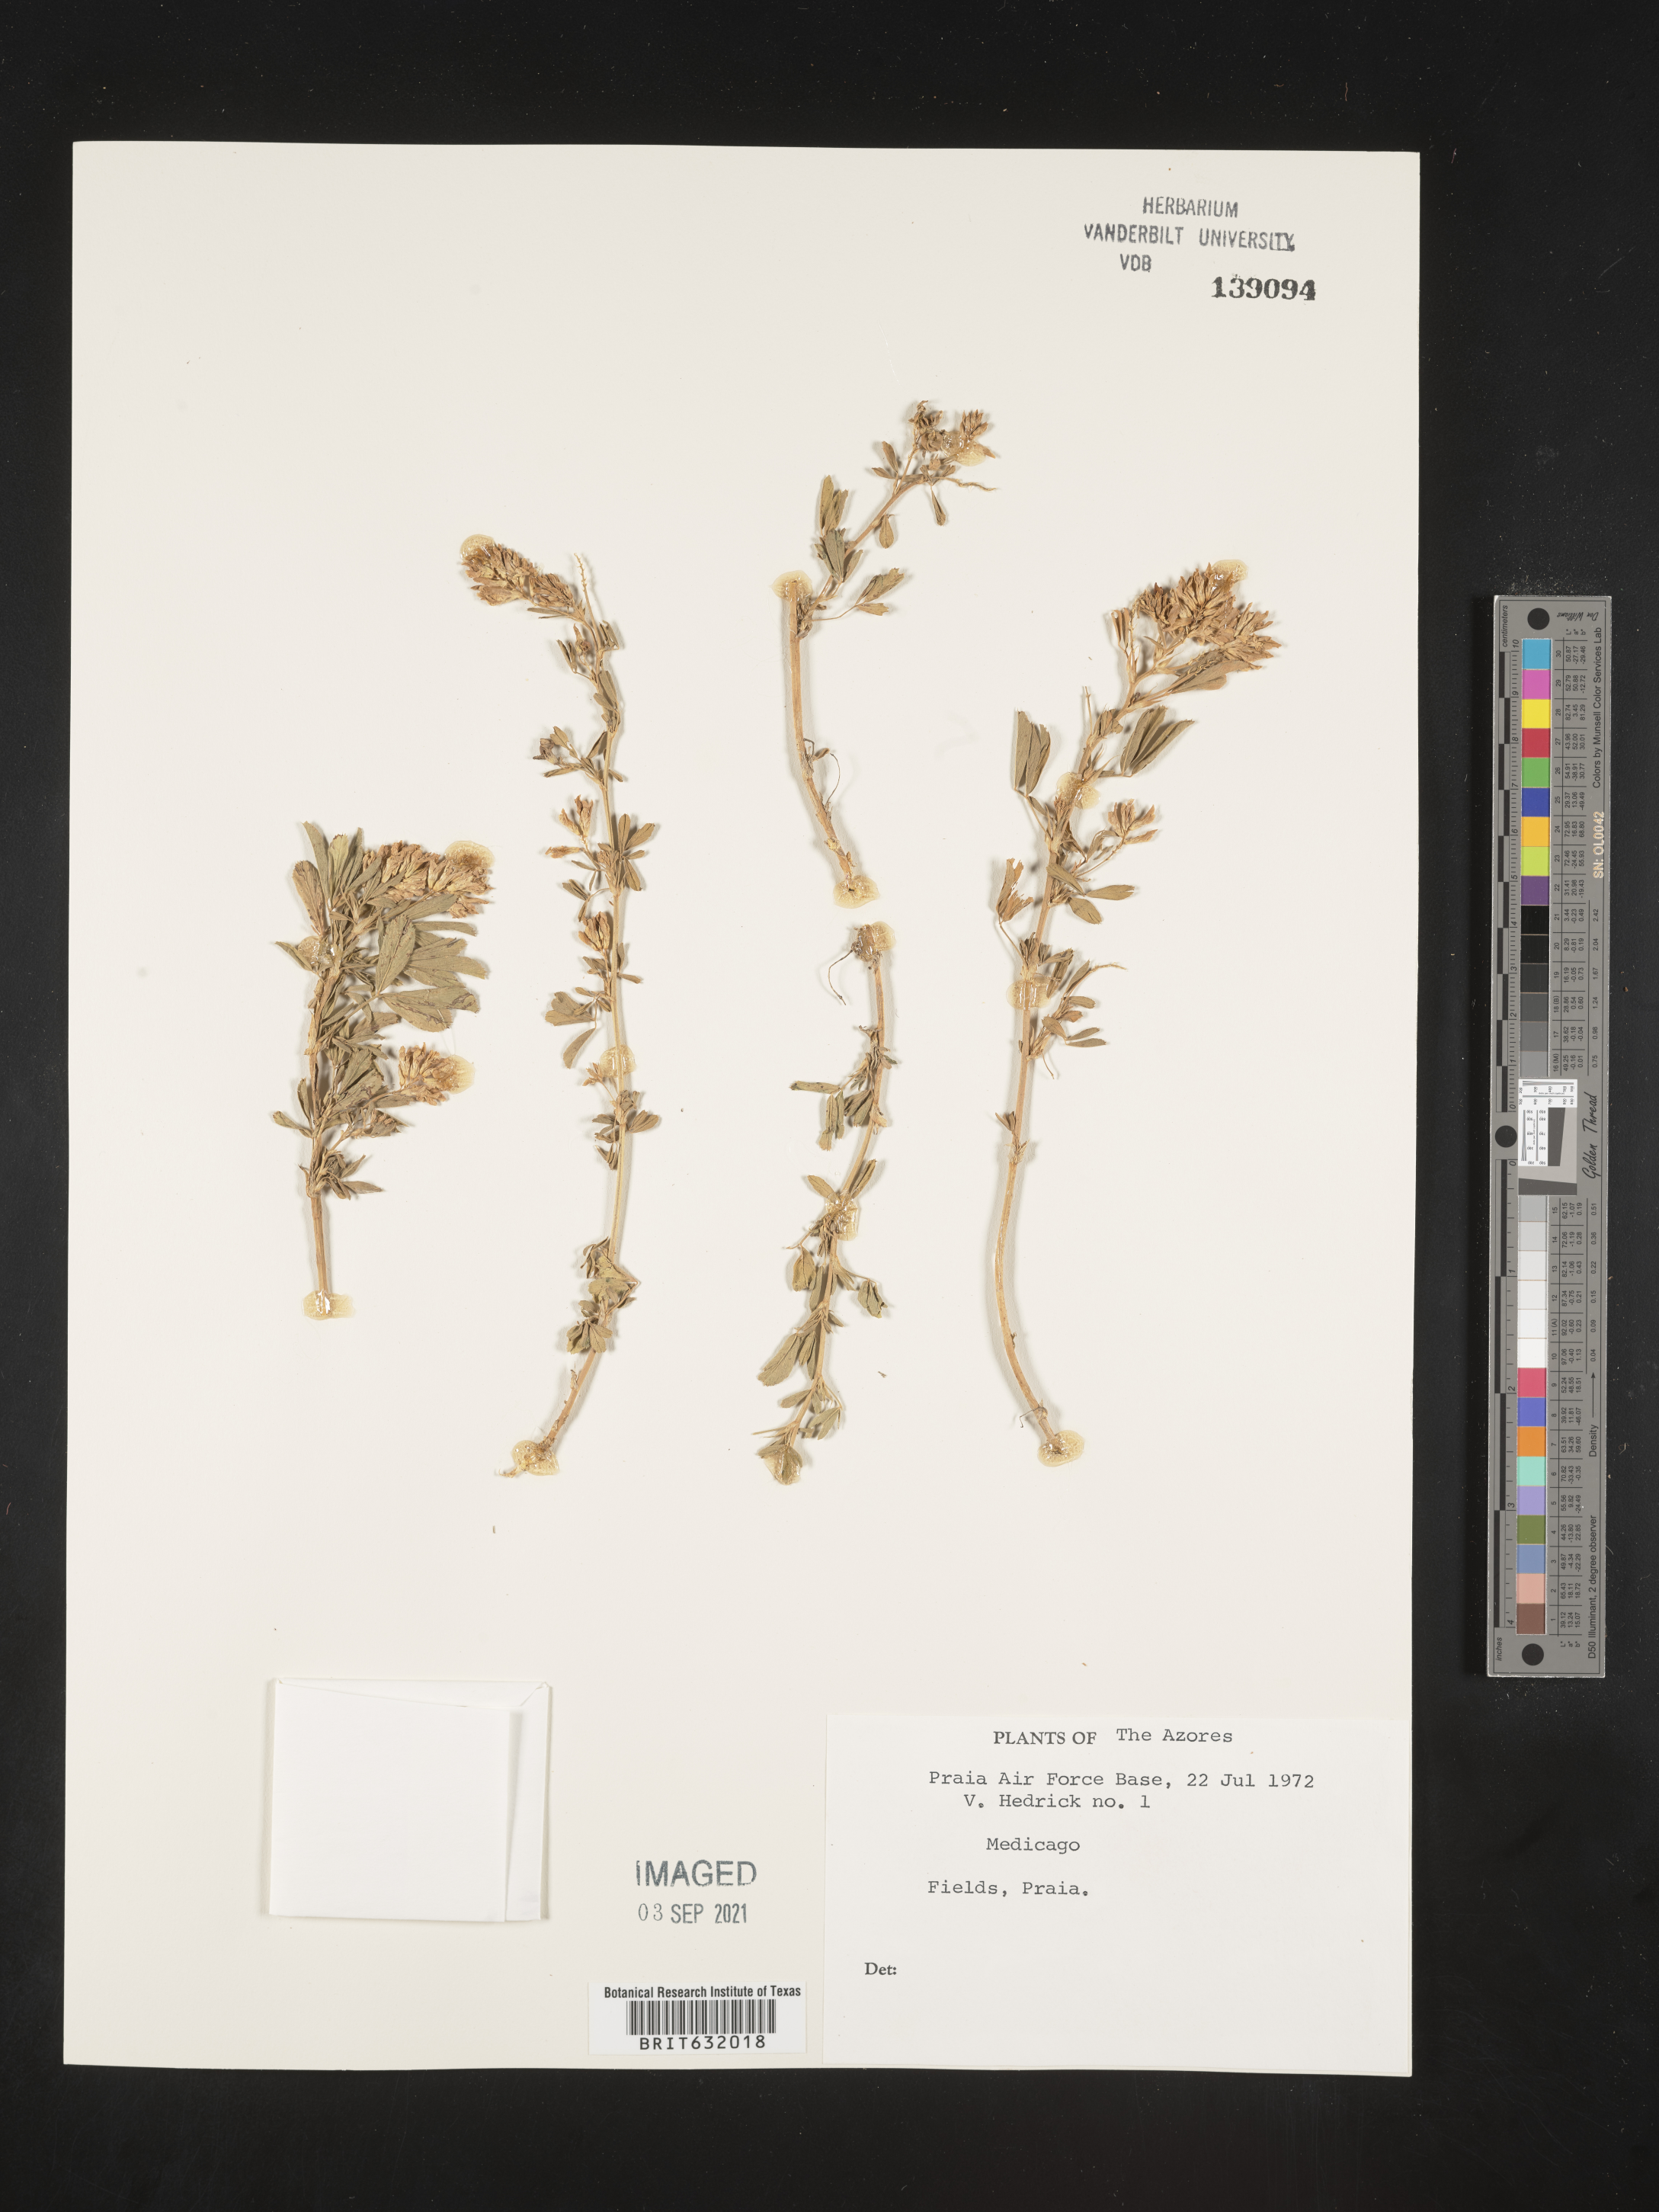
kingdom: Plantae
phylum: Tracheophyta
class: Magnoliopsida
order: Fabales
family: Fabaceae
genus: Medicago
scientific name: Medicago
